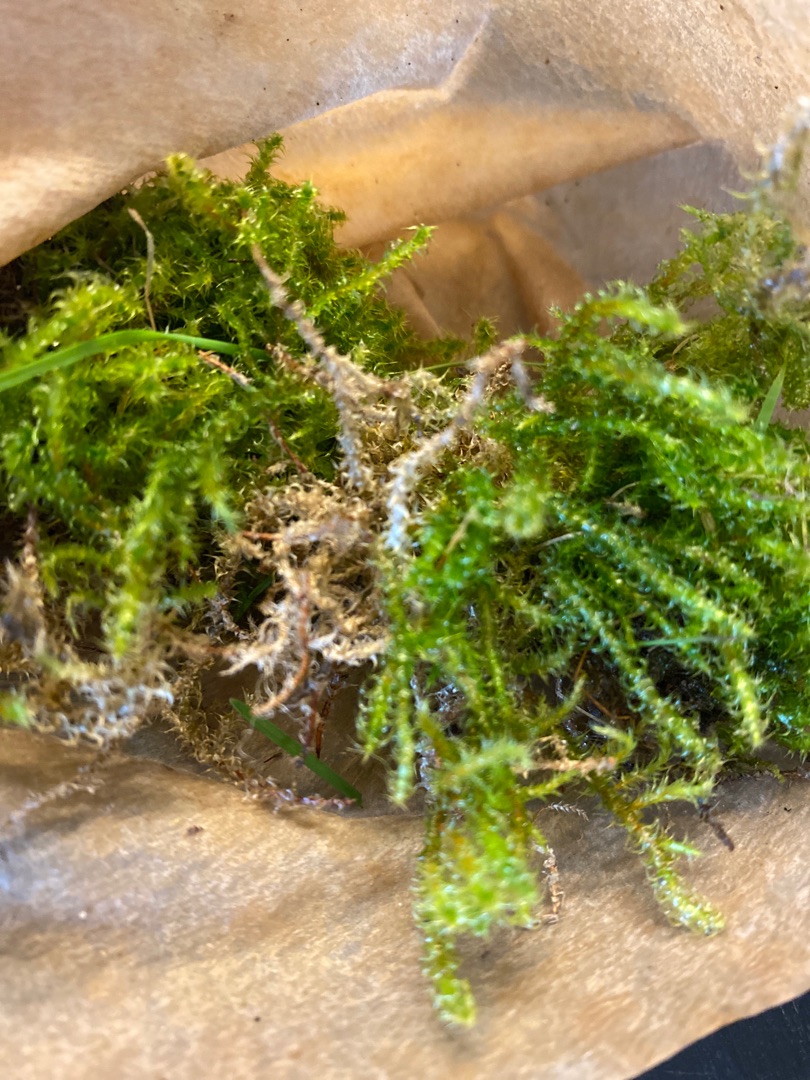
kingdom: Plantae
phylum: Bryophyta
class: Bryopsida
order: Hypnales
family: Hylocomiaceae
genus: Rhytidiadelphus
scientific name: Rhytidiadelphus squarrosus
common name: Plæne-kransemos
